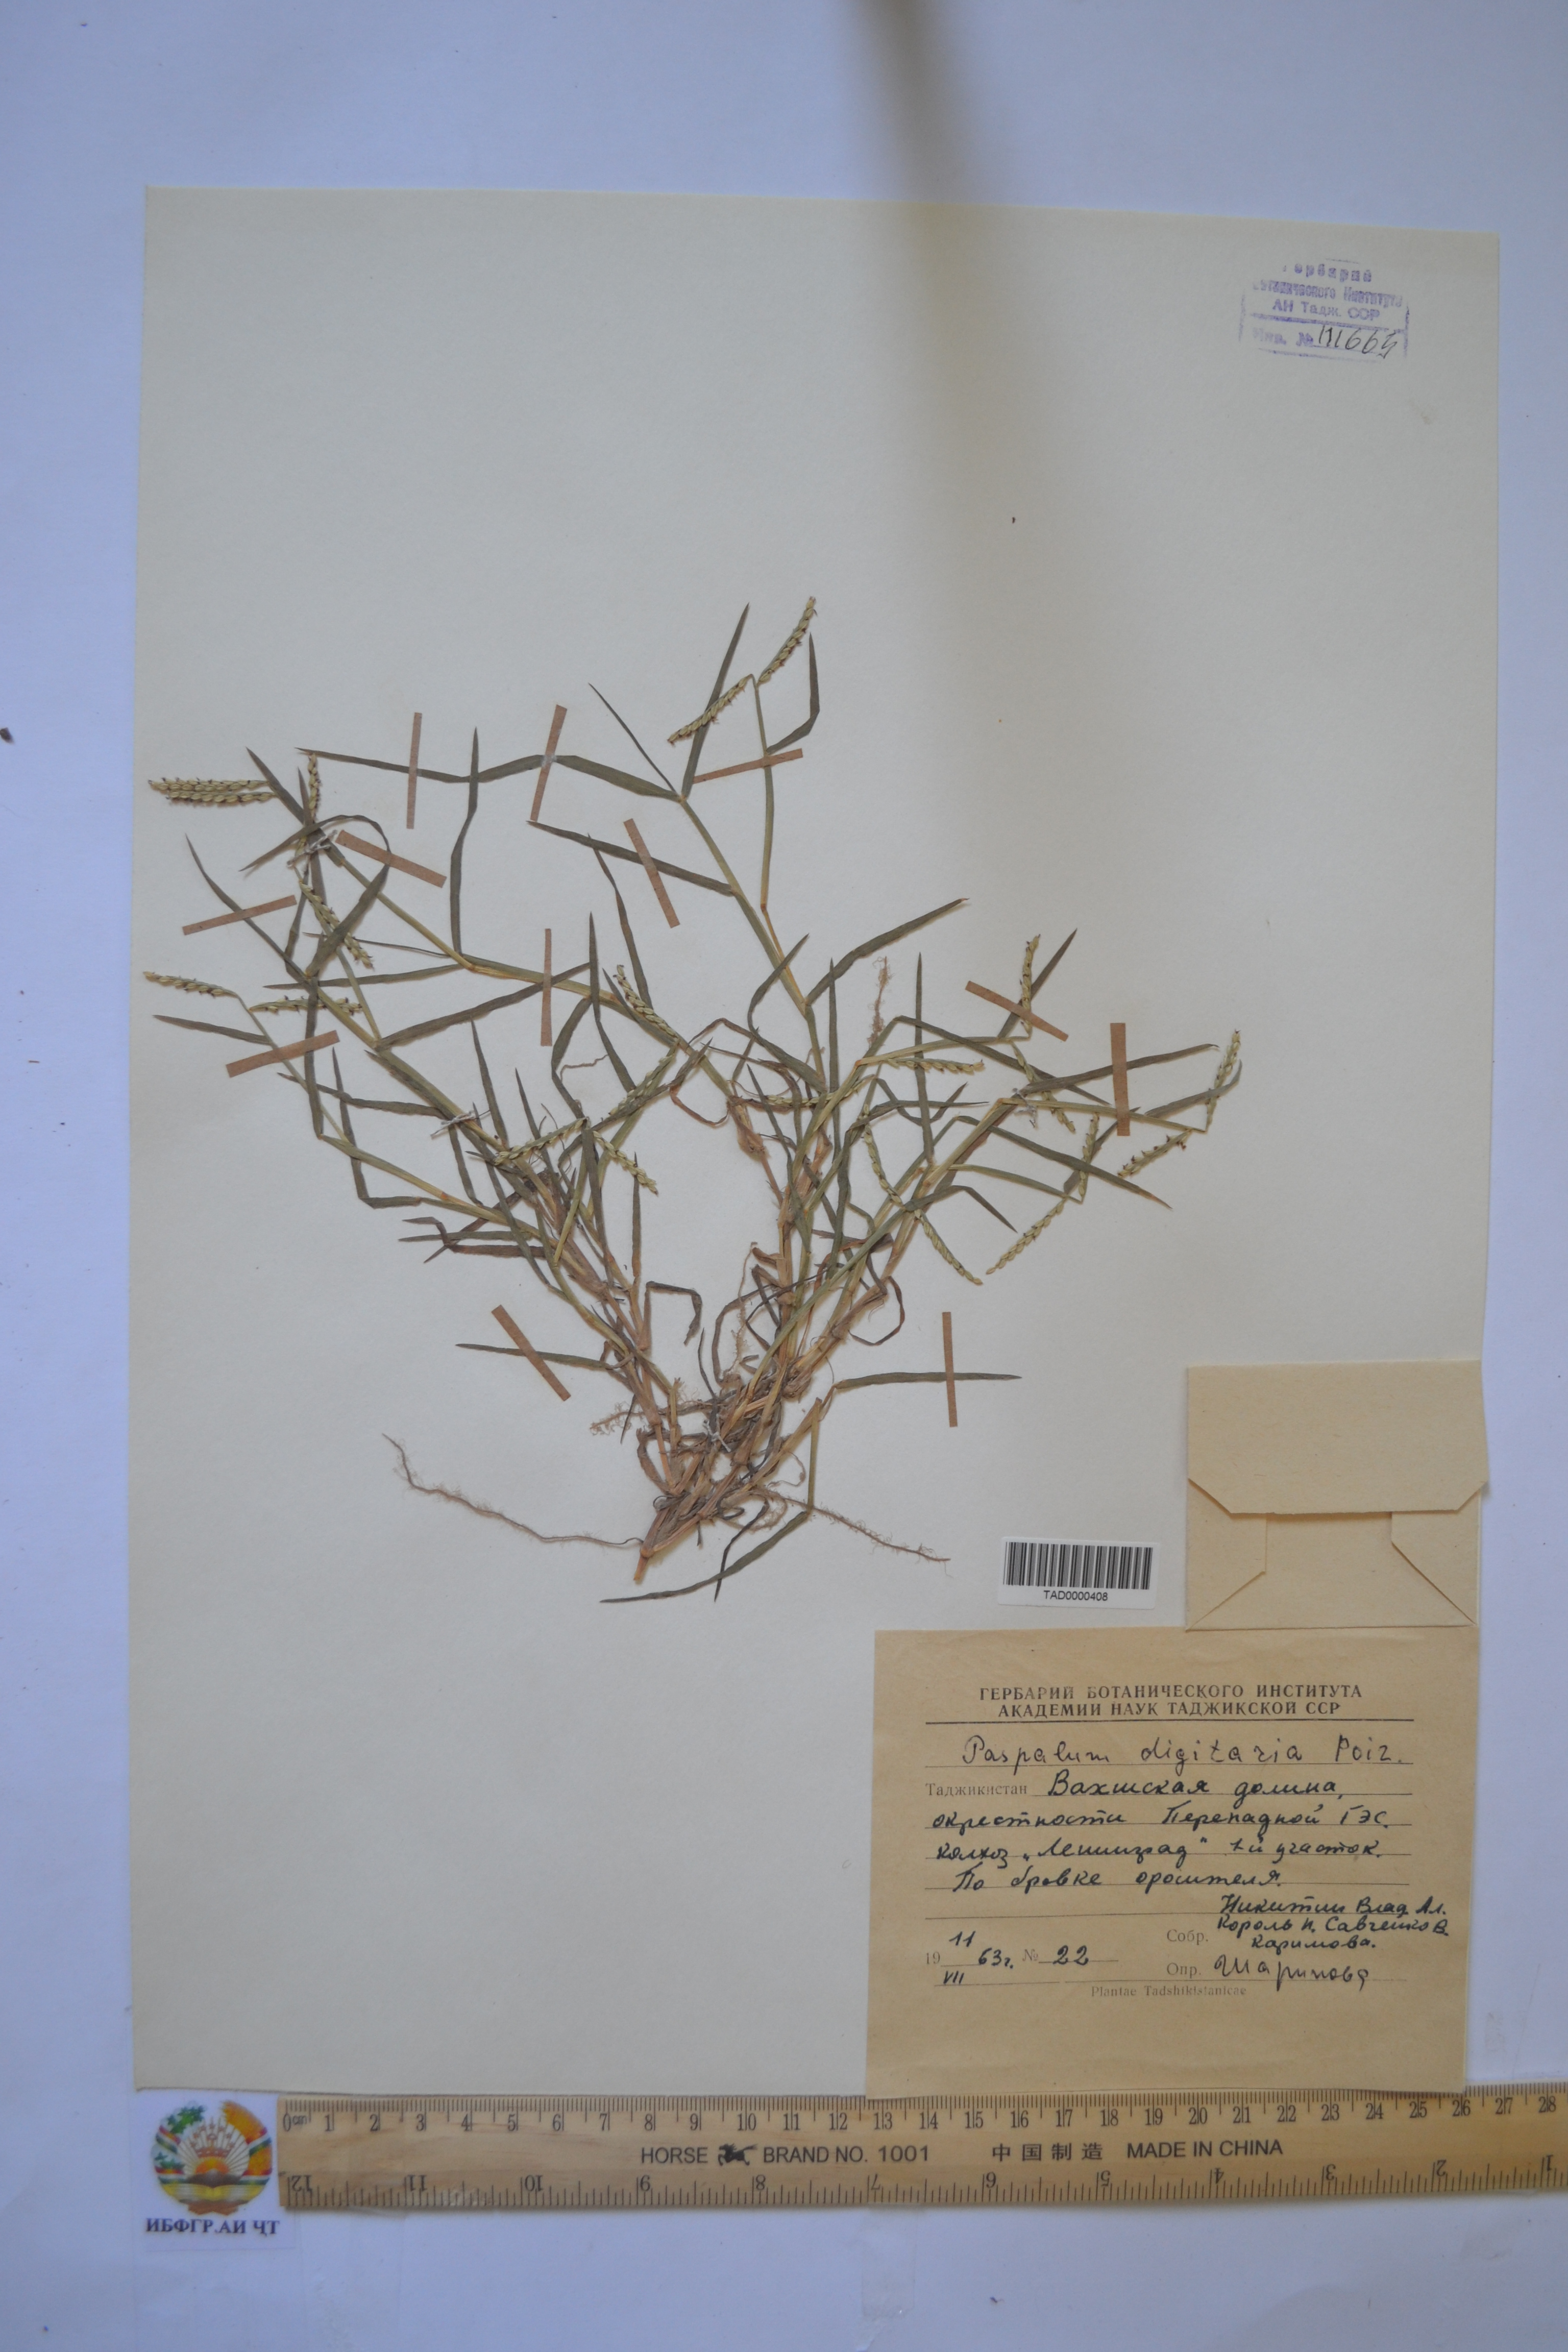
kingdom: Plantae
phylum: Tracheophyta
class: Liliopsida
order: Poales
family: Poaceae
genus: Paspalum
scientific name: Paspalum distichum
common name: Knotgrass
